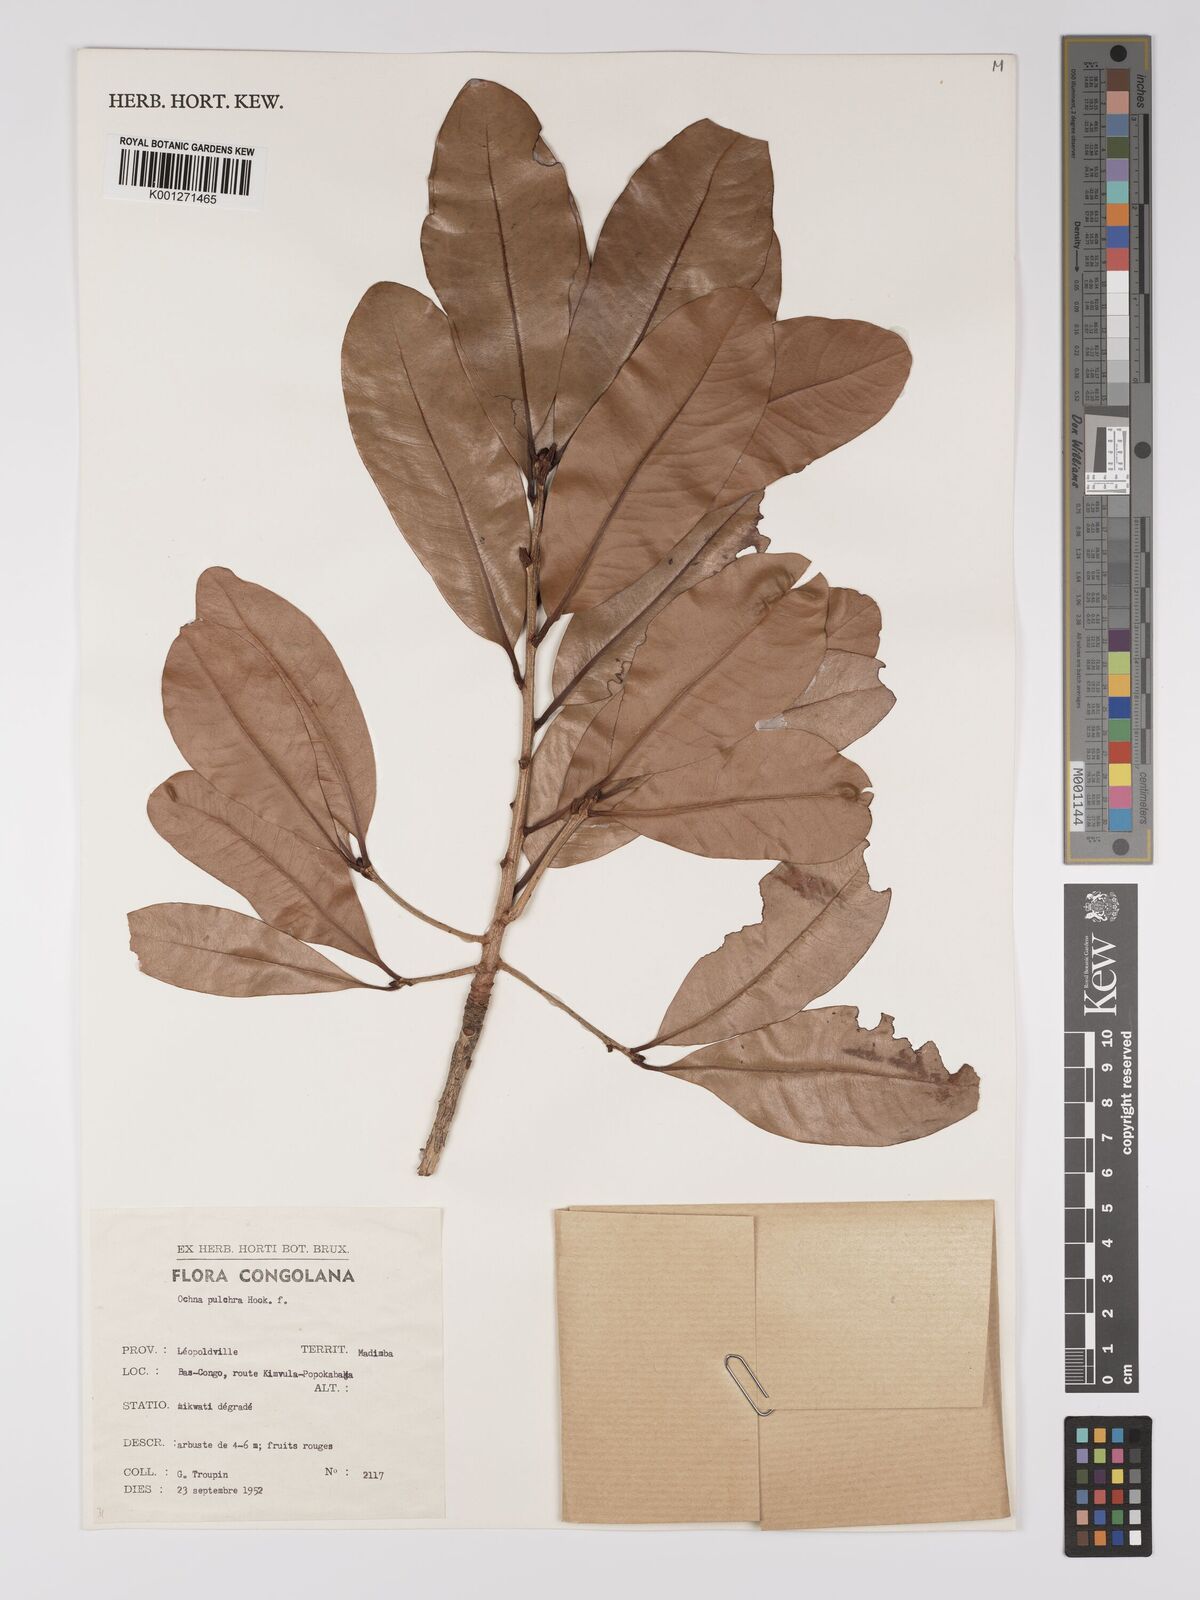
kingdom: Plantae
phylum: Tracheophyta
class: Magnoliopsida
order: Malpighiales
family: Ochnaceae
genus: Ochna
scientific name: Ochna pulchra
